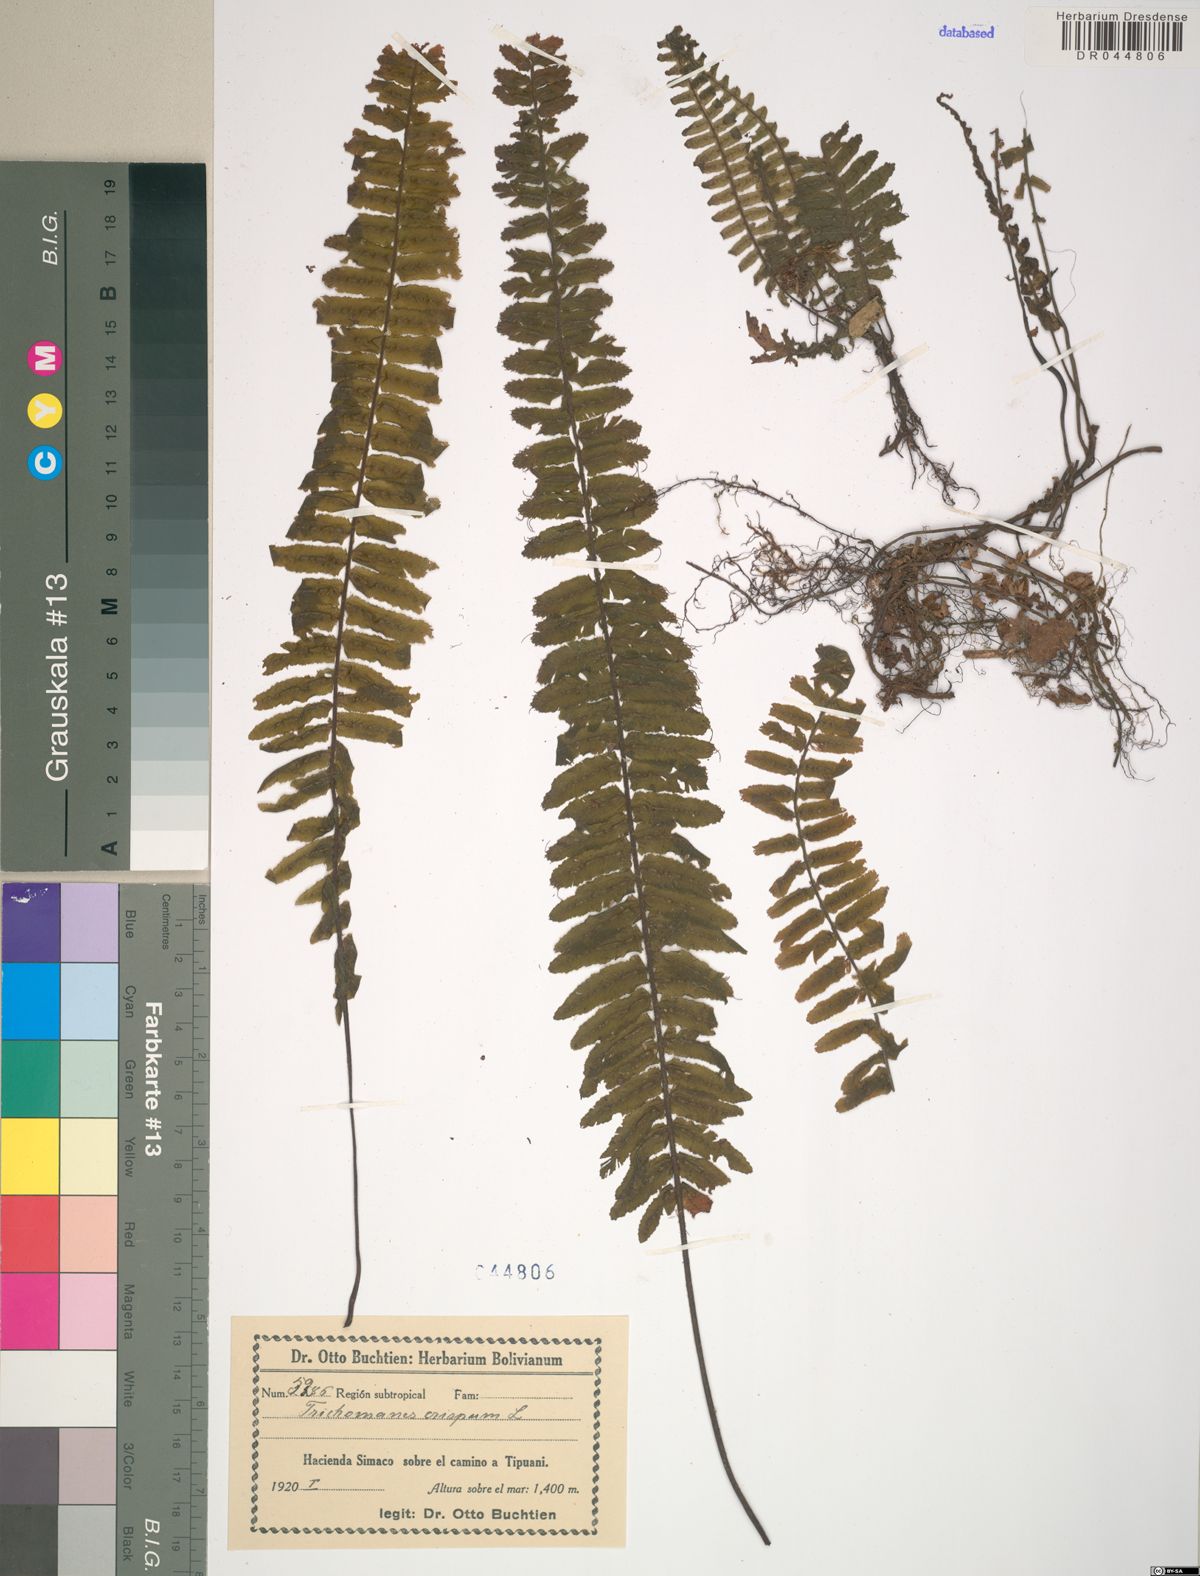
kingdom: Plantae
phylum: Tracheophyta
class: Polypodiopsida
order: Hymenophyllales
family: Hymenophyllaceae
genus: Trichomanes
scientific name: Trichomanes crispum
